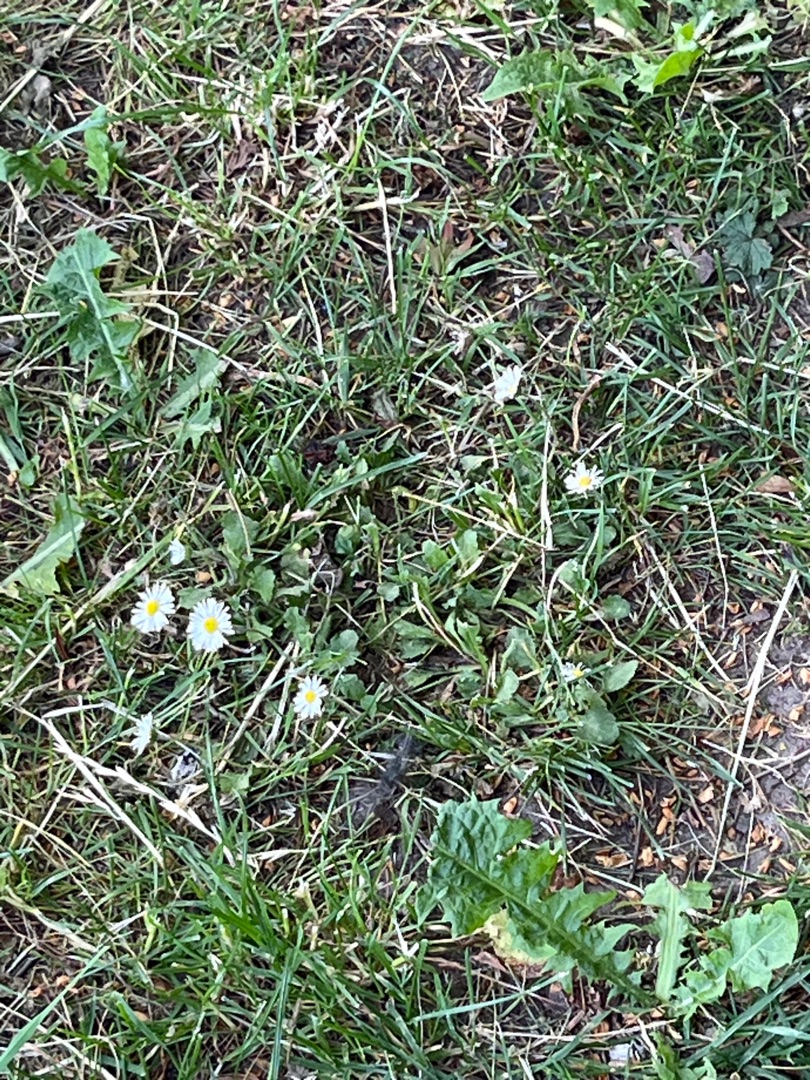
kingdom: Plantae
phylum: Tracheophyta
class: Magnoliopsida
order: Asterales
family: Asteraceae
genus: Bellis
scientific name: Bellis perennis
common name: Tusindfryd
